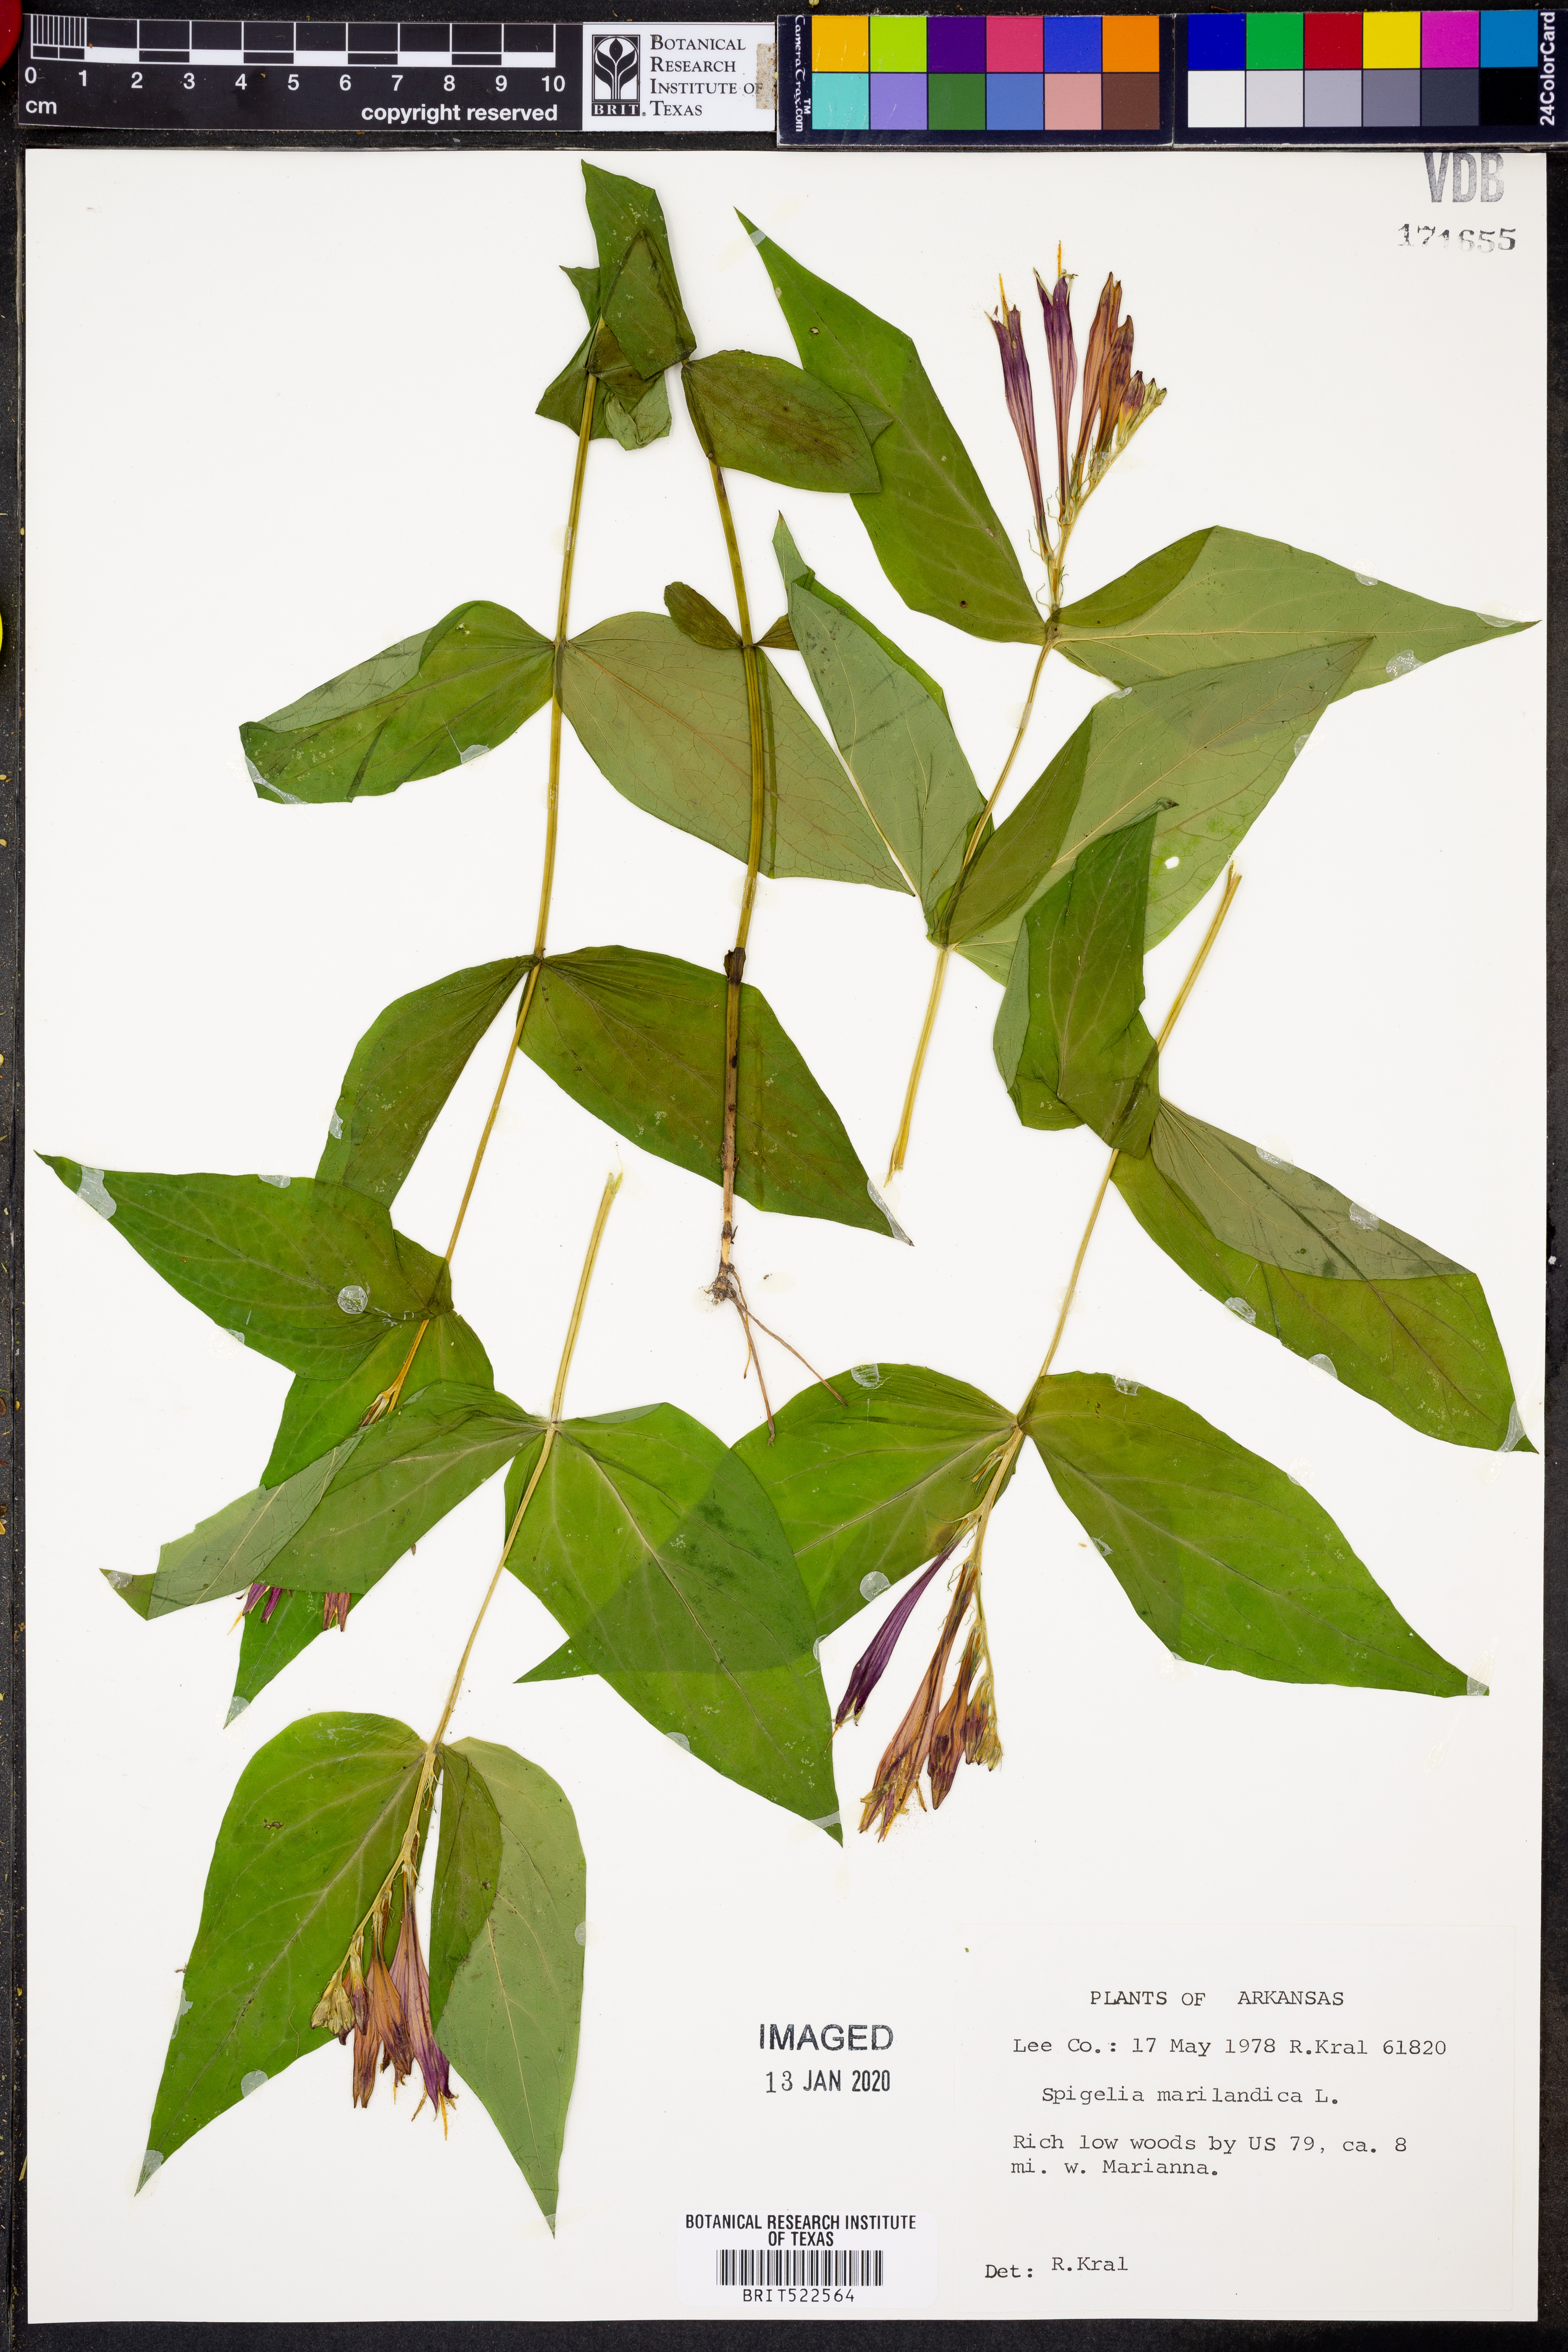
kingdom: Plantae
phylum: Tracheophyta
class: Magnoliopsida
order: Gentianales
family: Loganiaceae
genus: Spigelia
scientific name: Spigelia marilandica
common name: Indian-pink
